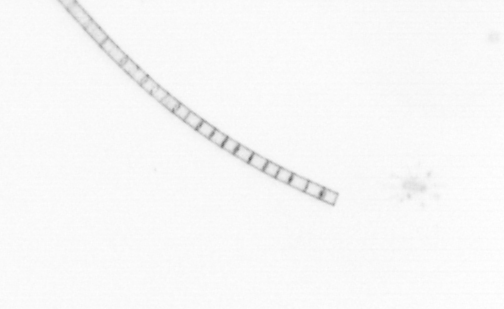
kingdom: Chromista
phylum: Ochrophyta
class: Bacillariophyceae
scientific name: Bacillariophyceae
